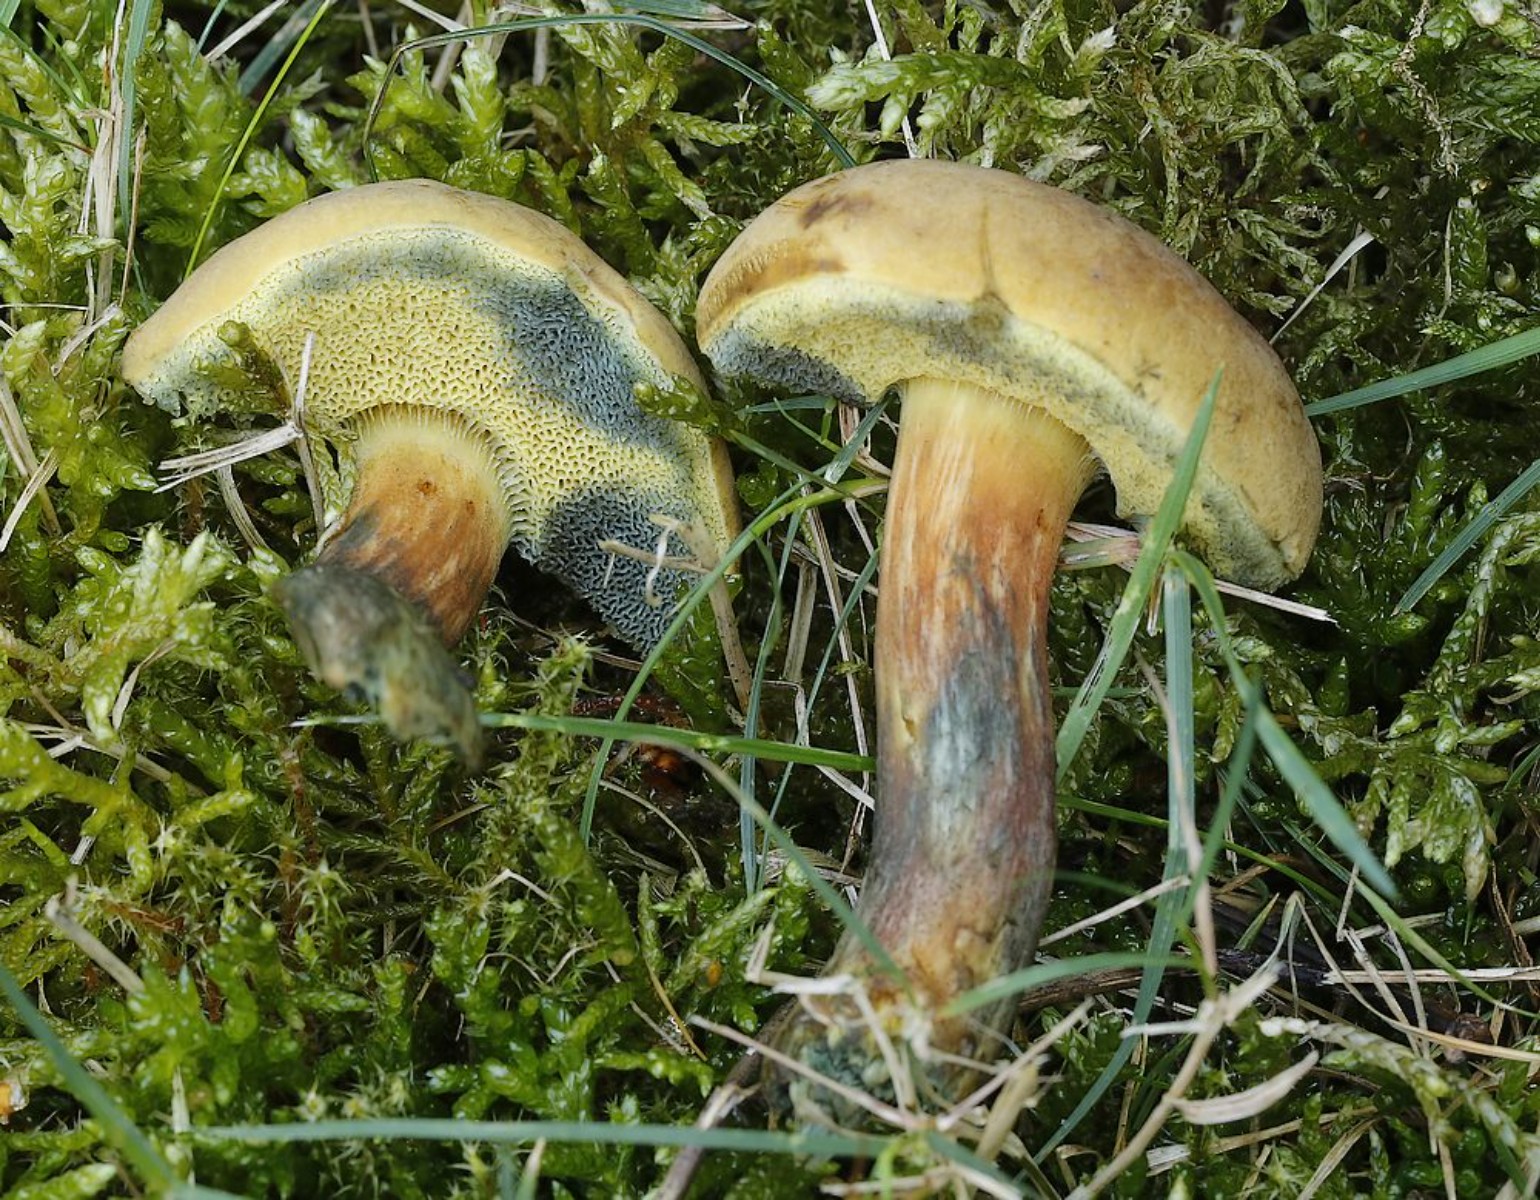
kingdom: Fungi
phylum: Basidiomycota
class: Agaricomycetes
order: Boletales
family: Boletaceae
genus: Cyanoboletus
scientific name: Cyanoboletus pulverulentus
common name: sortblånende rørhat
